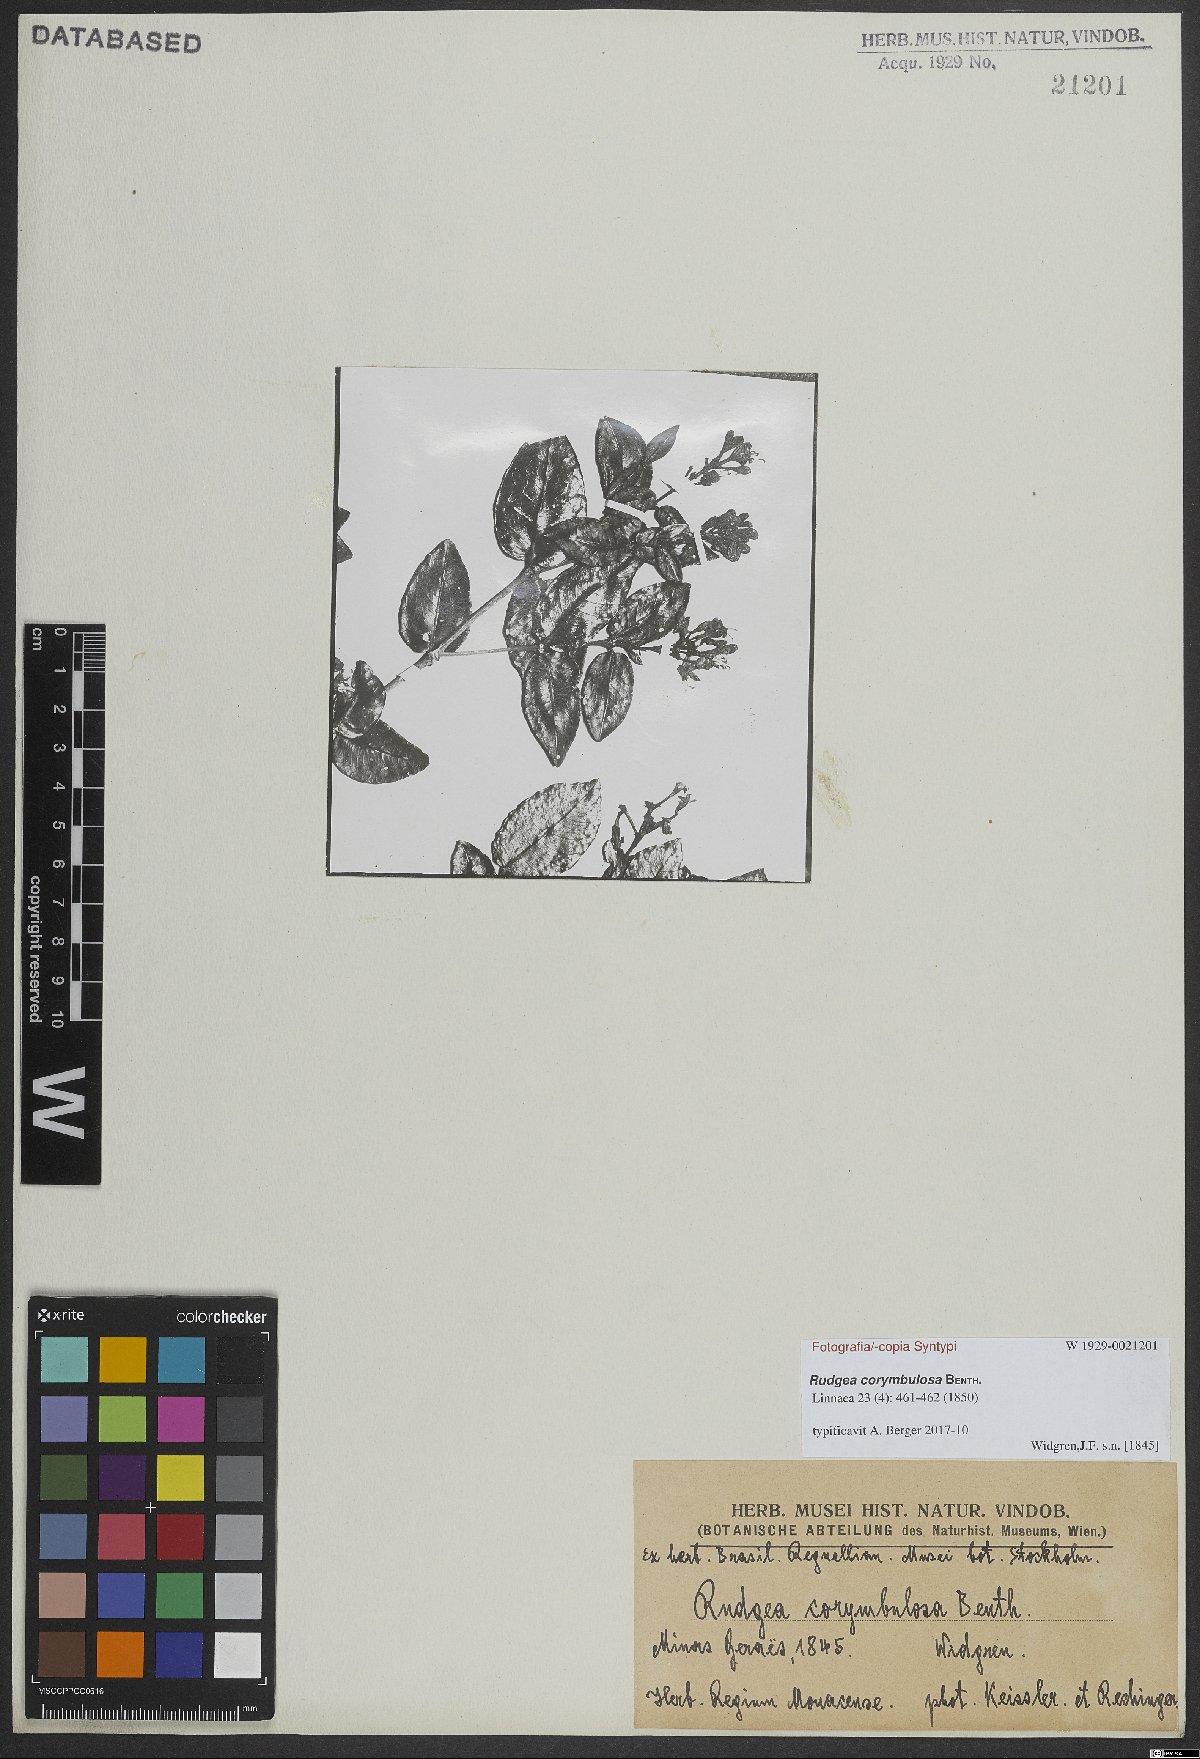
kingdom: Plantae
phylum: Tracheophyta
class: Magnoliopsida
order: Gentianales
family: Rubiaceae
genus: Rudgea
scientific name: Rudgea corymbulosa
